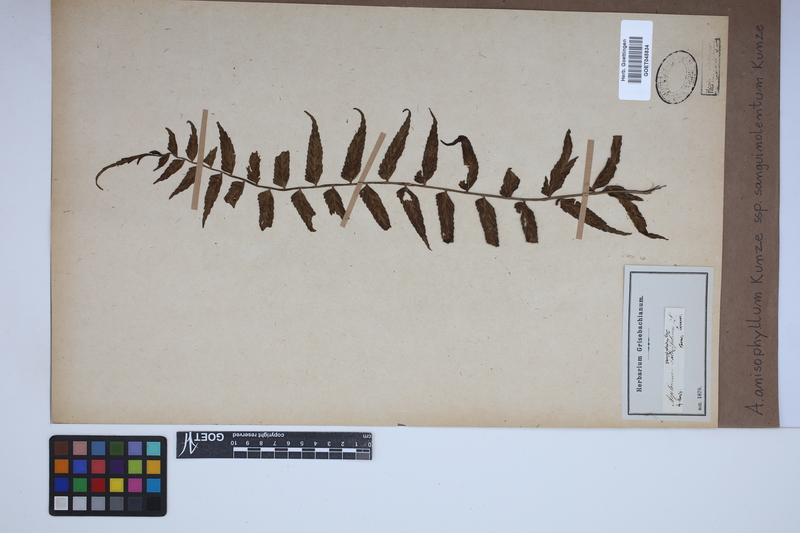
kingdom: Plantae
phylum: Tracheophyta
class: Polypodiopsida
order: Polypodiales
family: Aspleniaceae
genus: Asplenium
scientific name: Asplenium feei
